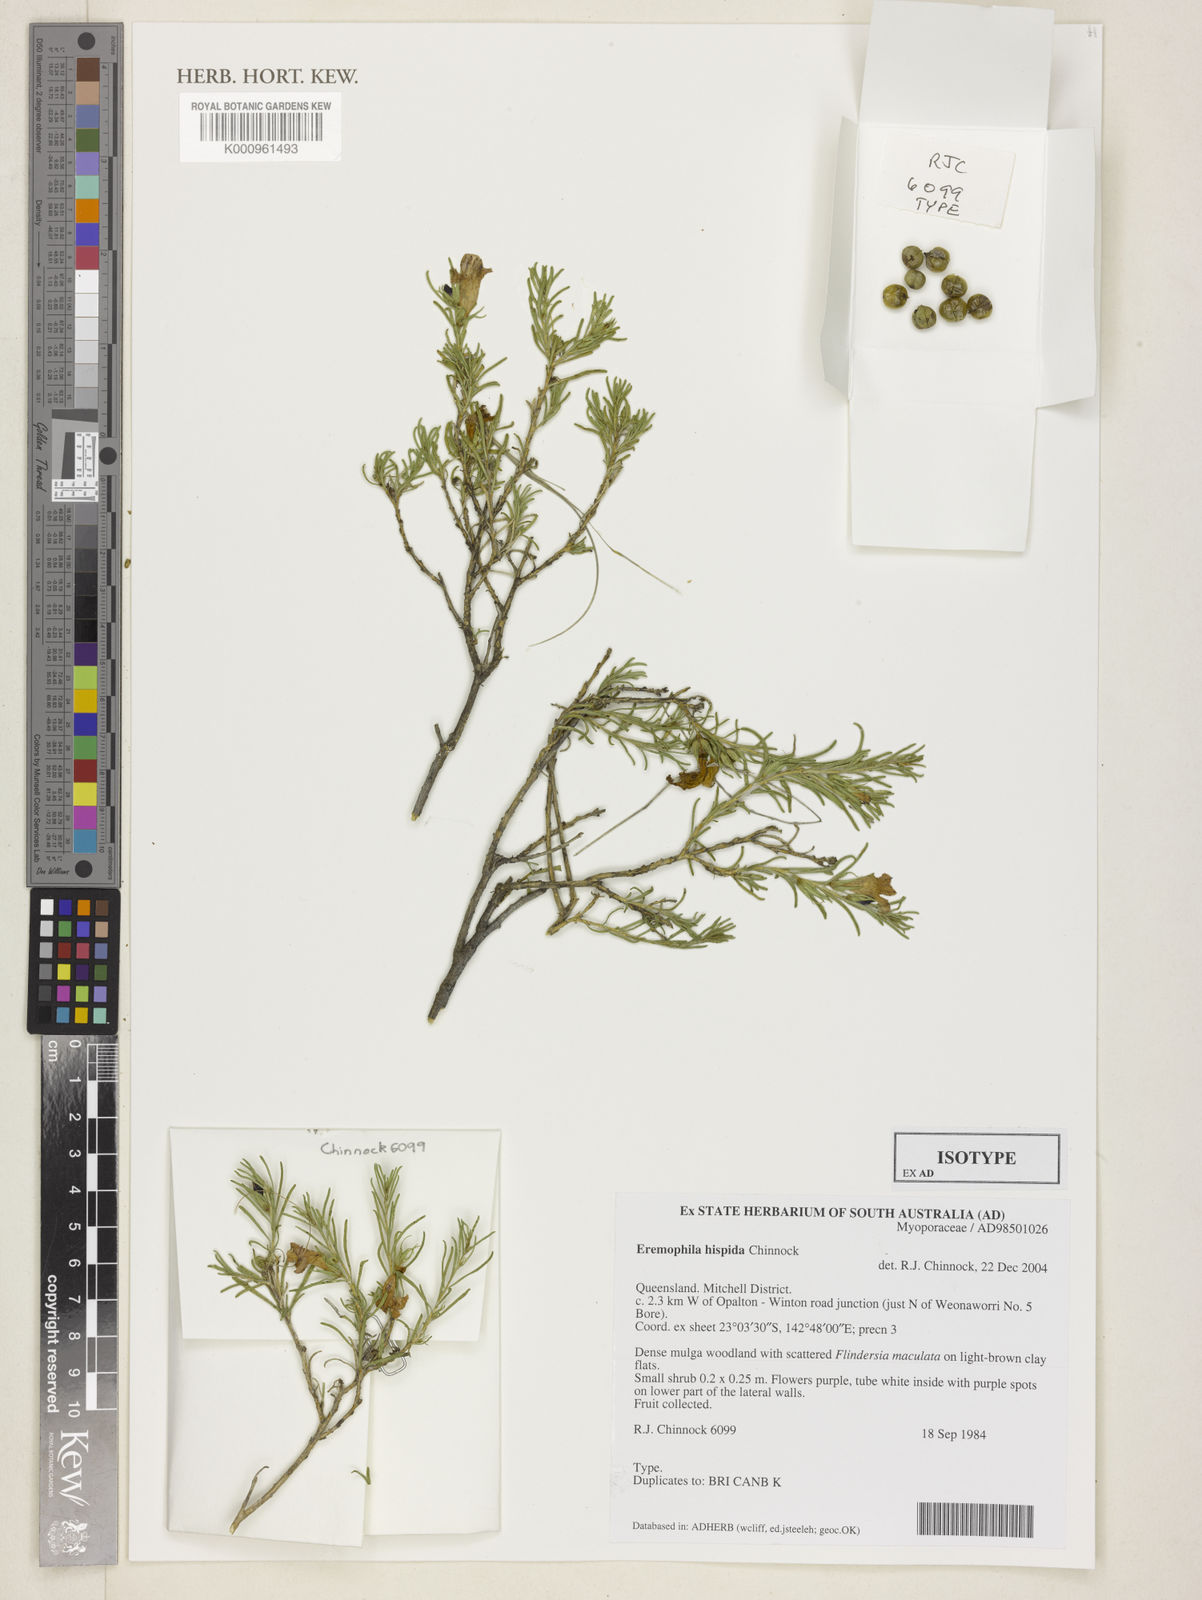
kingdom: Plantae
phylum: Tracheophyta
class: Magnoliopsida
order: Lamiales
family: Scrophulariaceae
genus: Eremophila
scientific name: Eremophila hispida
